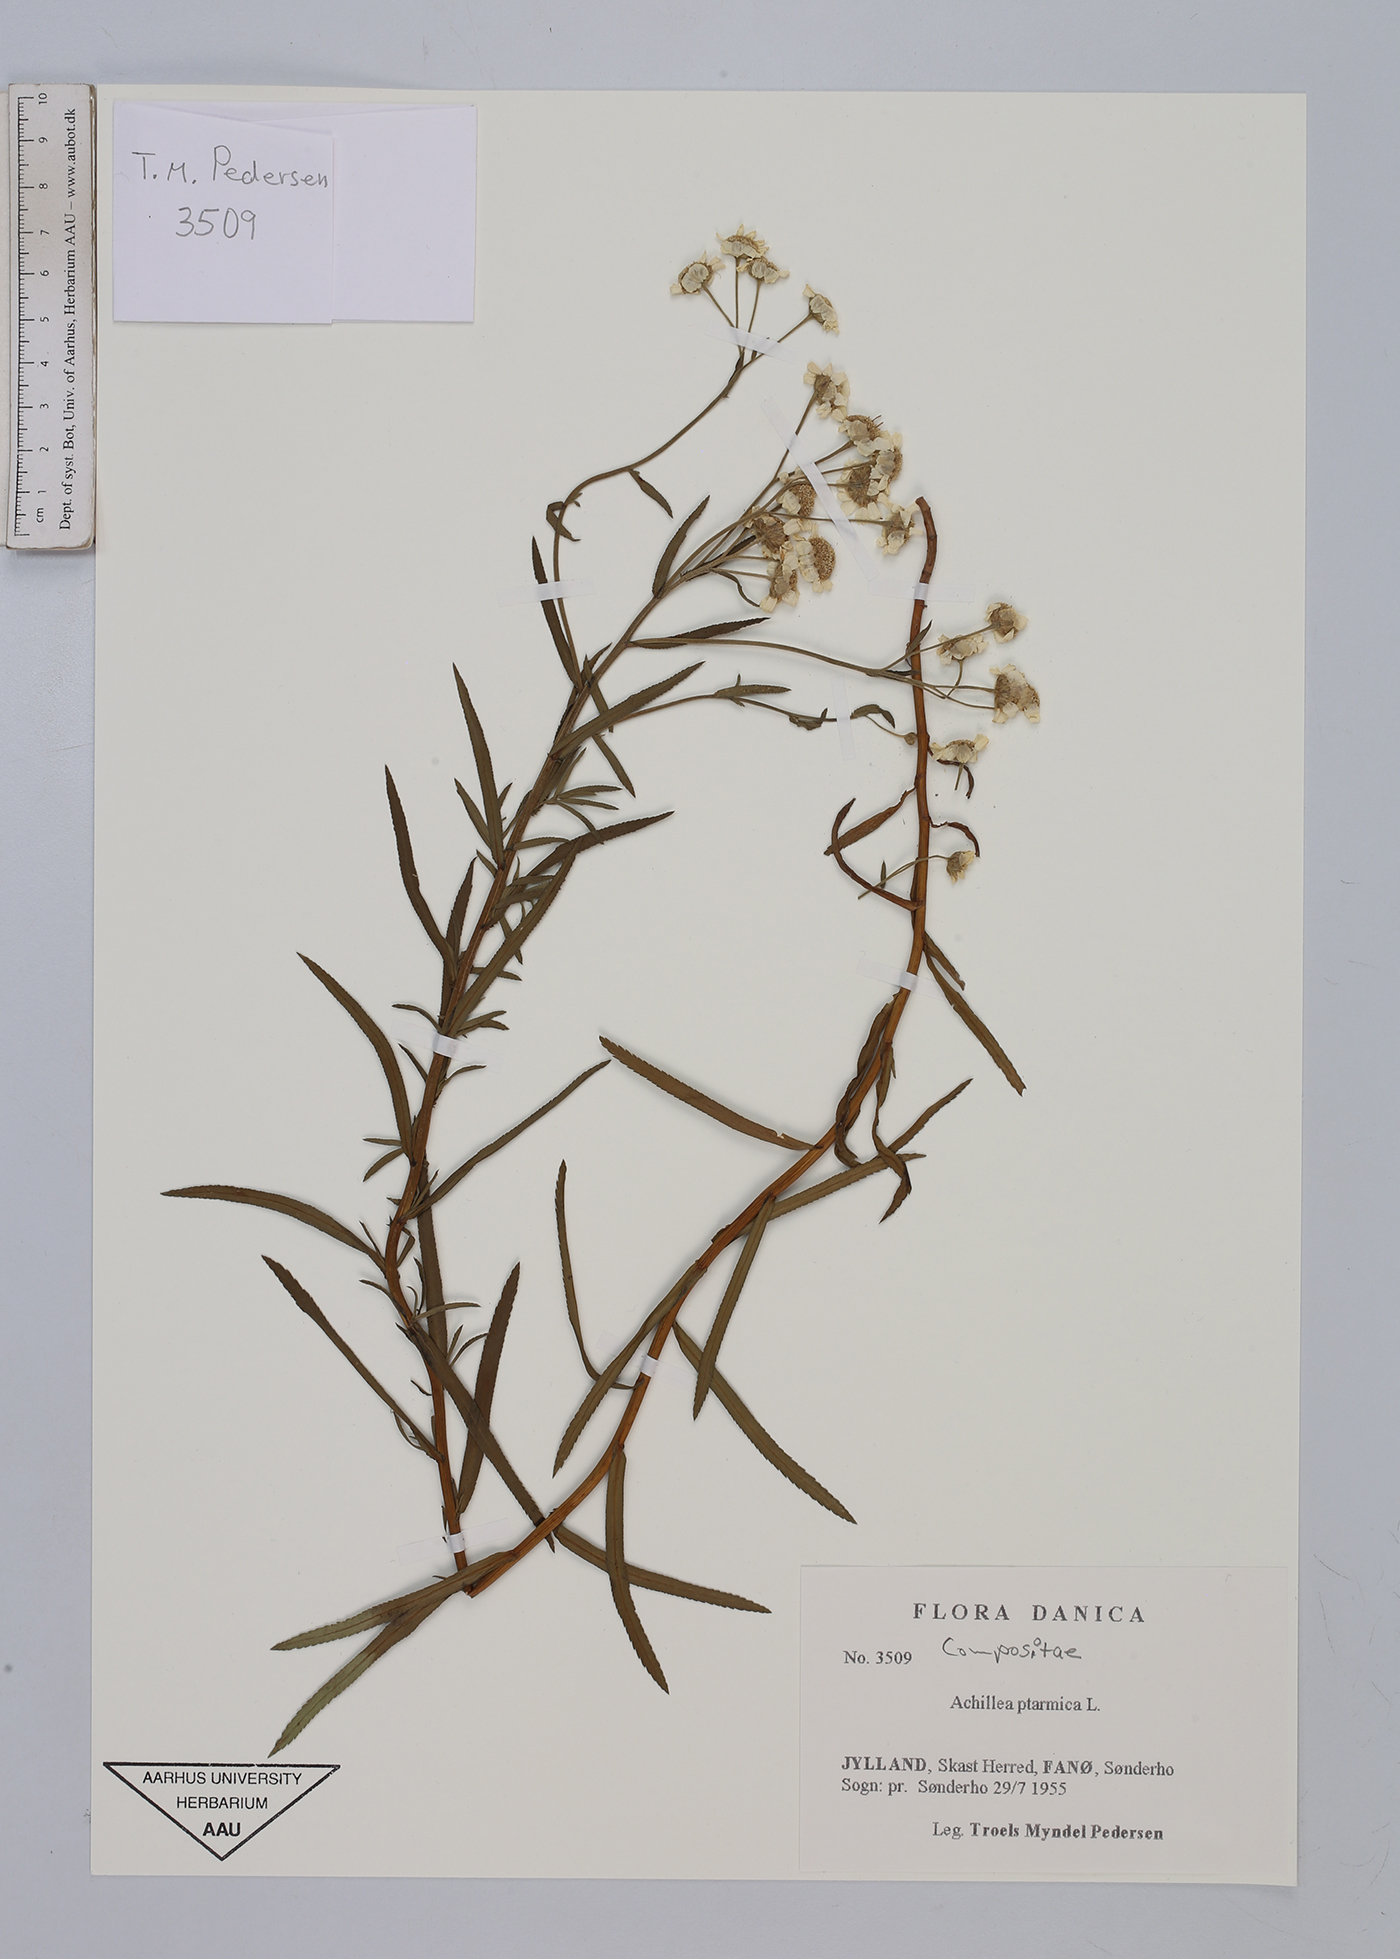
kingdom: Plantae
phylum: Tracheophyta
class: Magnoliopsida
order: Asterales
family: Asteraceae
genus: Achillea
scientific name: Achillea ptarmica
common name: Sneezeweed
